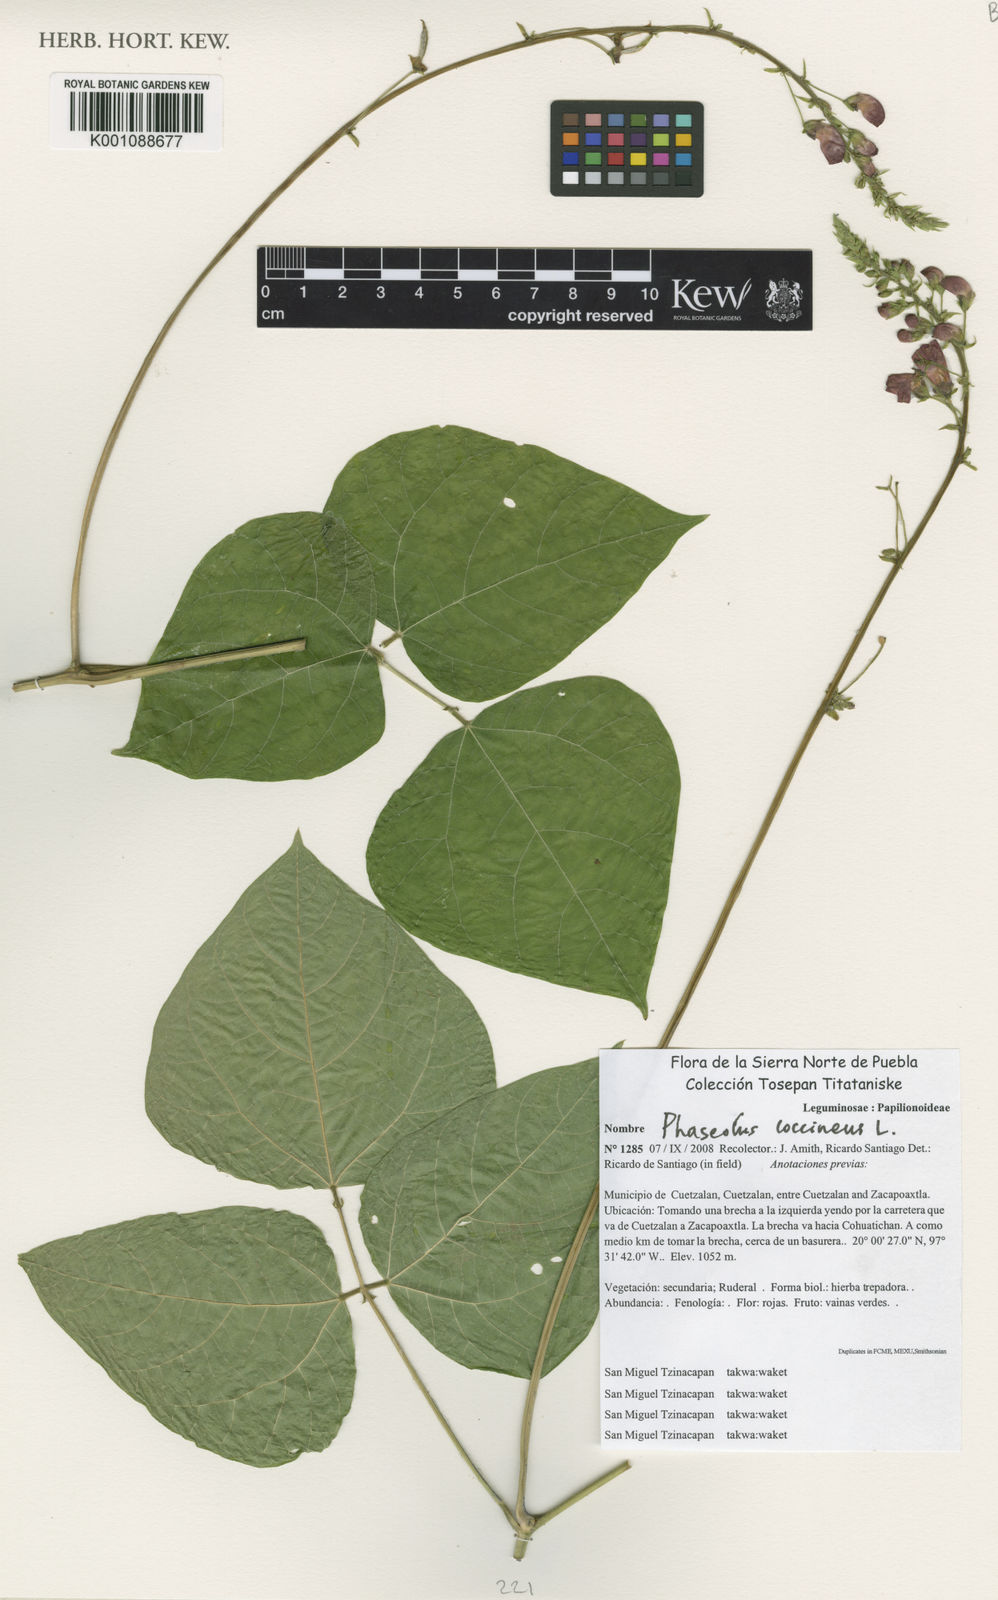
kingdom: Plantae
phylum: Tracheophyta
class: Magnoliopsida
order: Fabales
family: Fabaceae
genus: Phaseolus
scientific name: Phaseolus coccineus
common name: Runner bean
